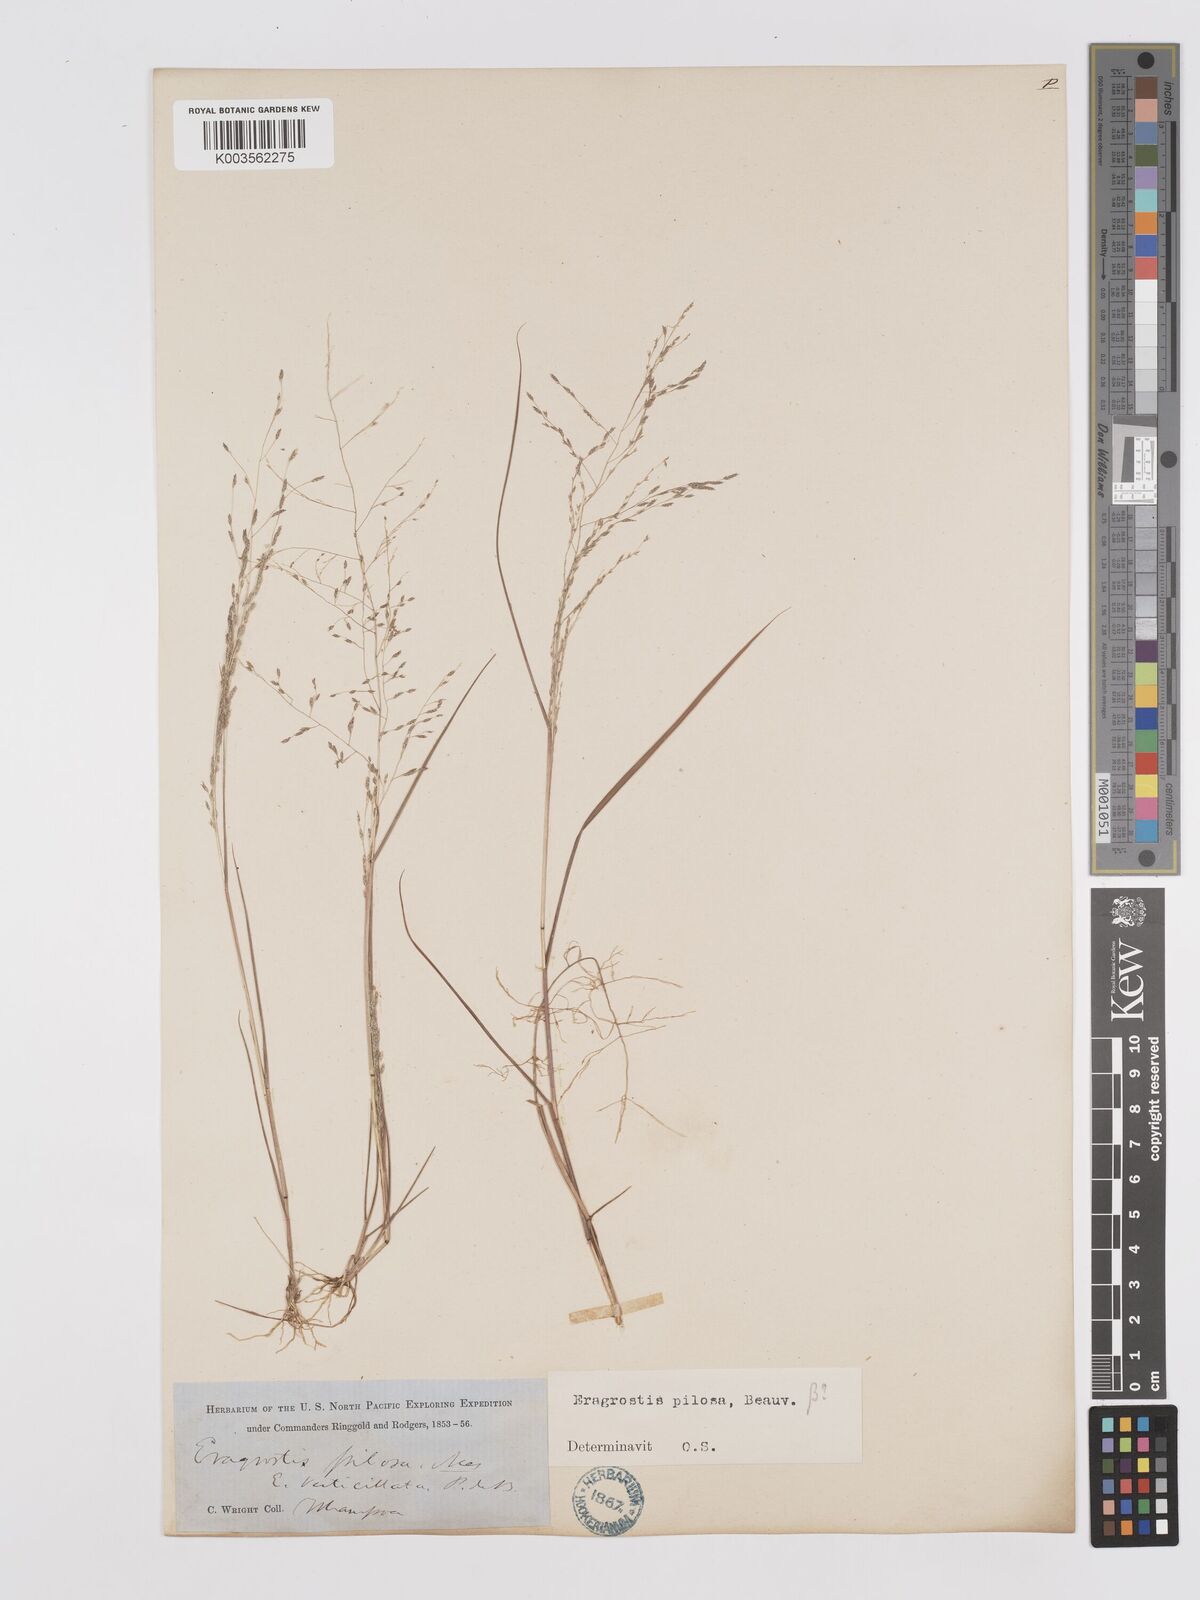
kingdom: Plantae
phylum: Tracheophyta
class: Liliopsida
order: Poales
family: Poaceae
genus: Eragrostis
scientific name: Eragrostis pilosa
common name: Indian lovegrass
